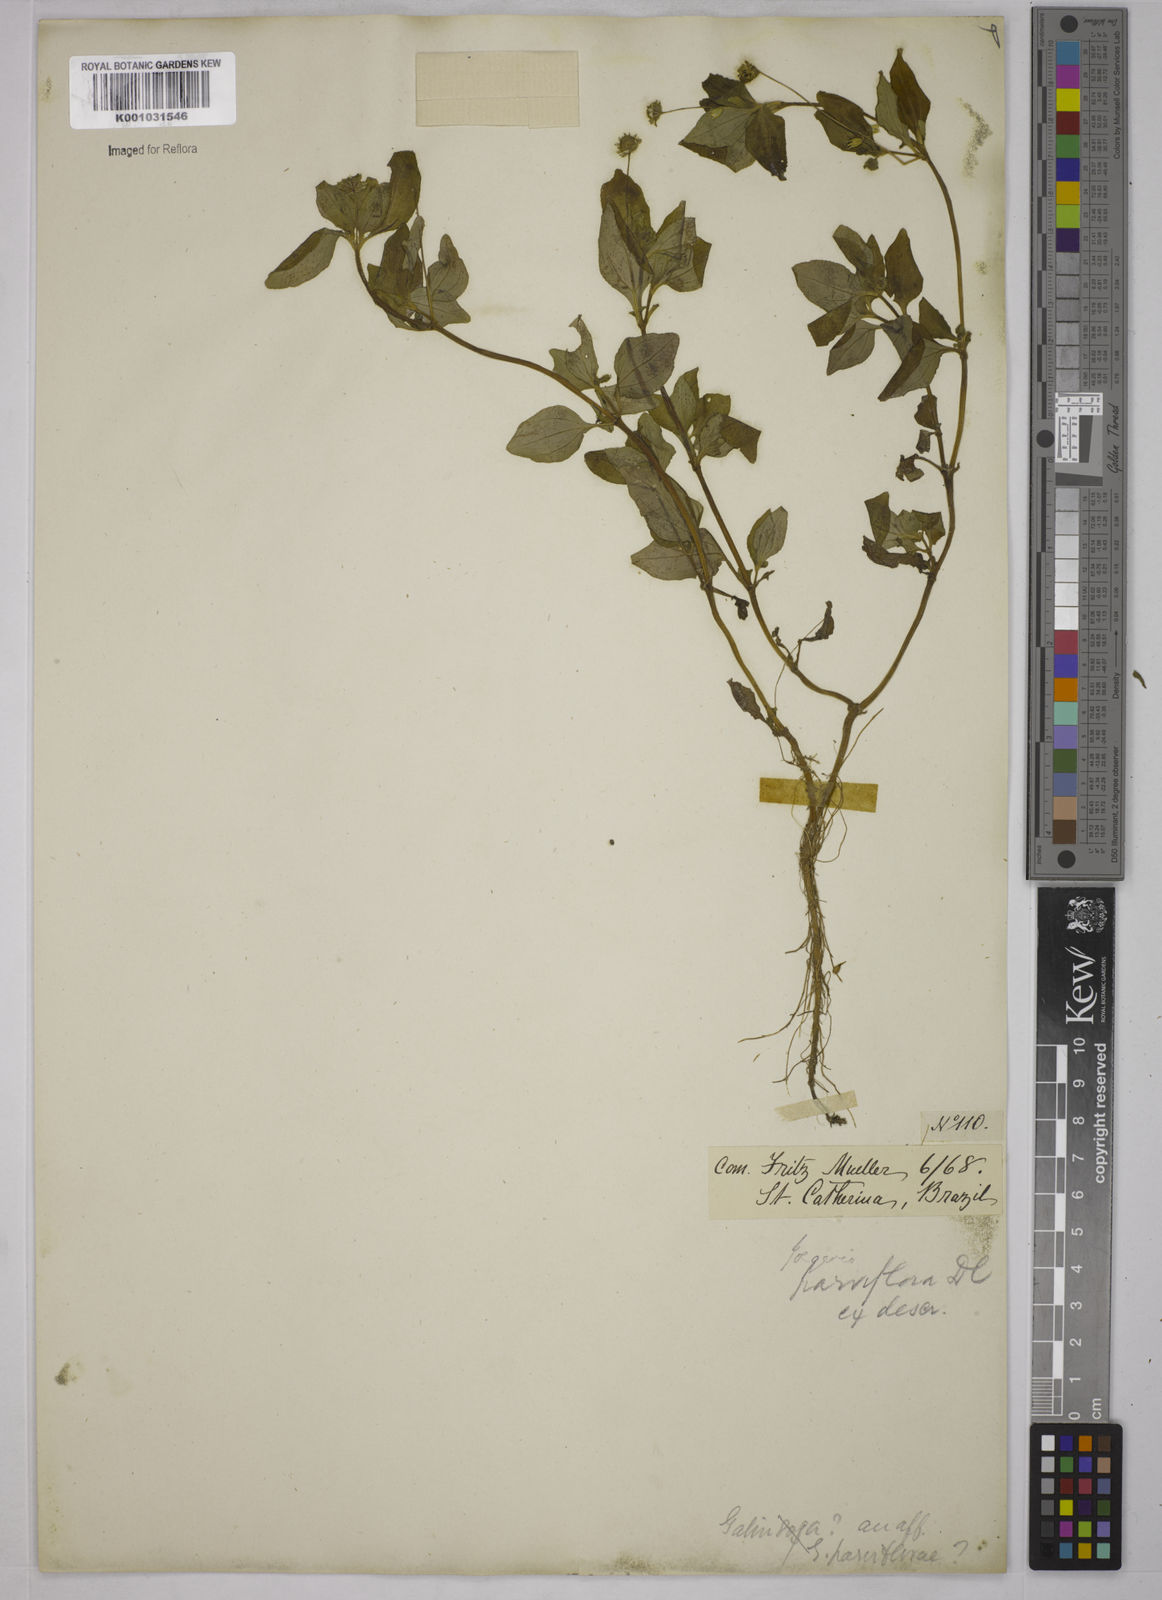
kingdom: Plantae
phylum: Tracheophyta
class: Magnoliopsida
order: Asterales
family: Asteraceae
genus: Jaegeria
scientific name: Jaegeria hirta
